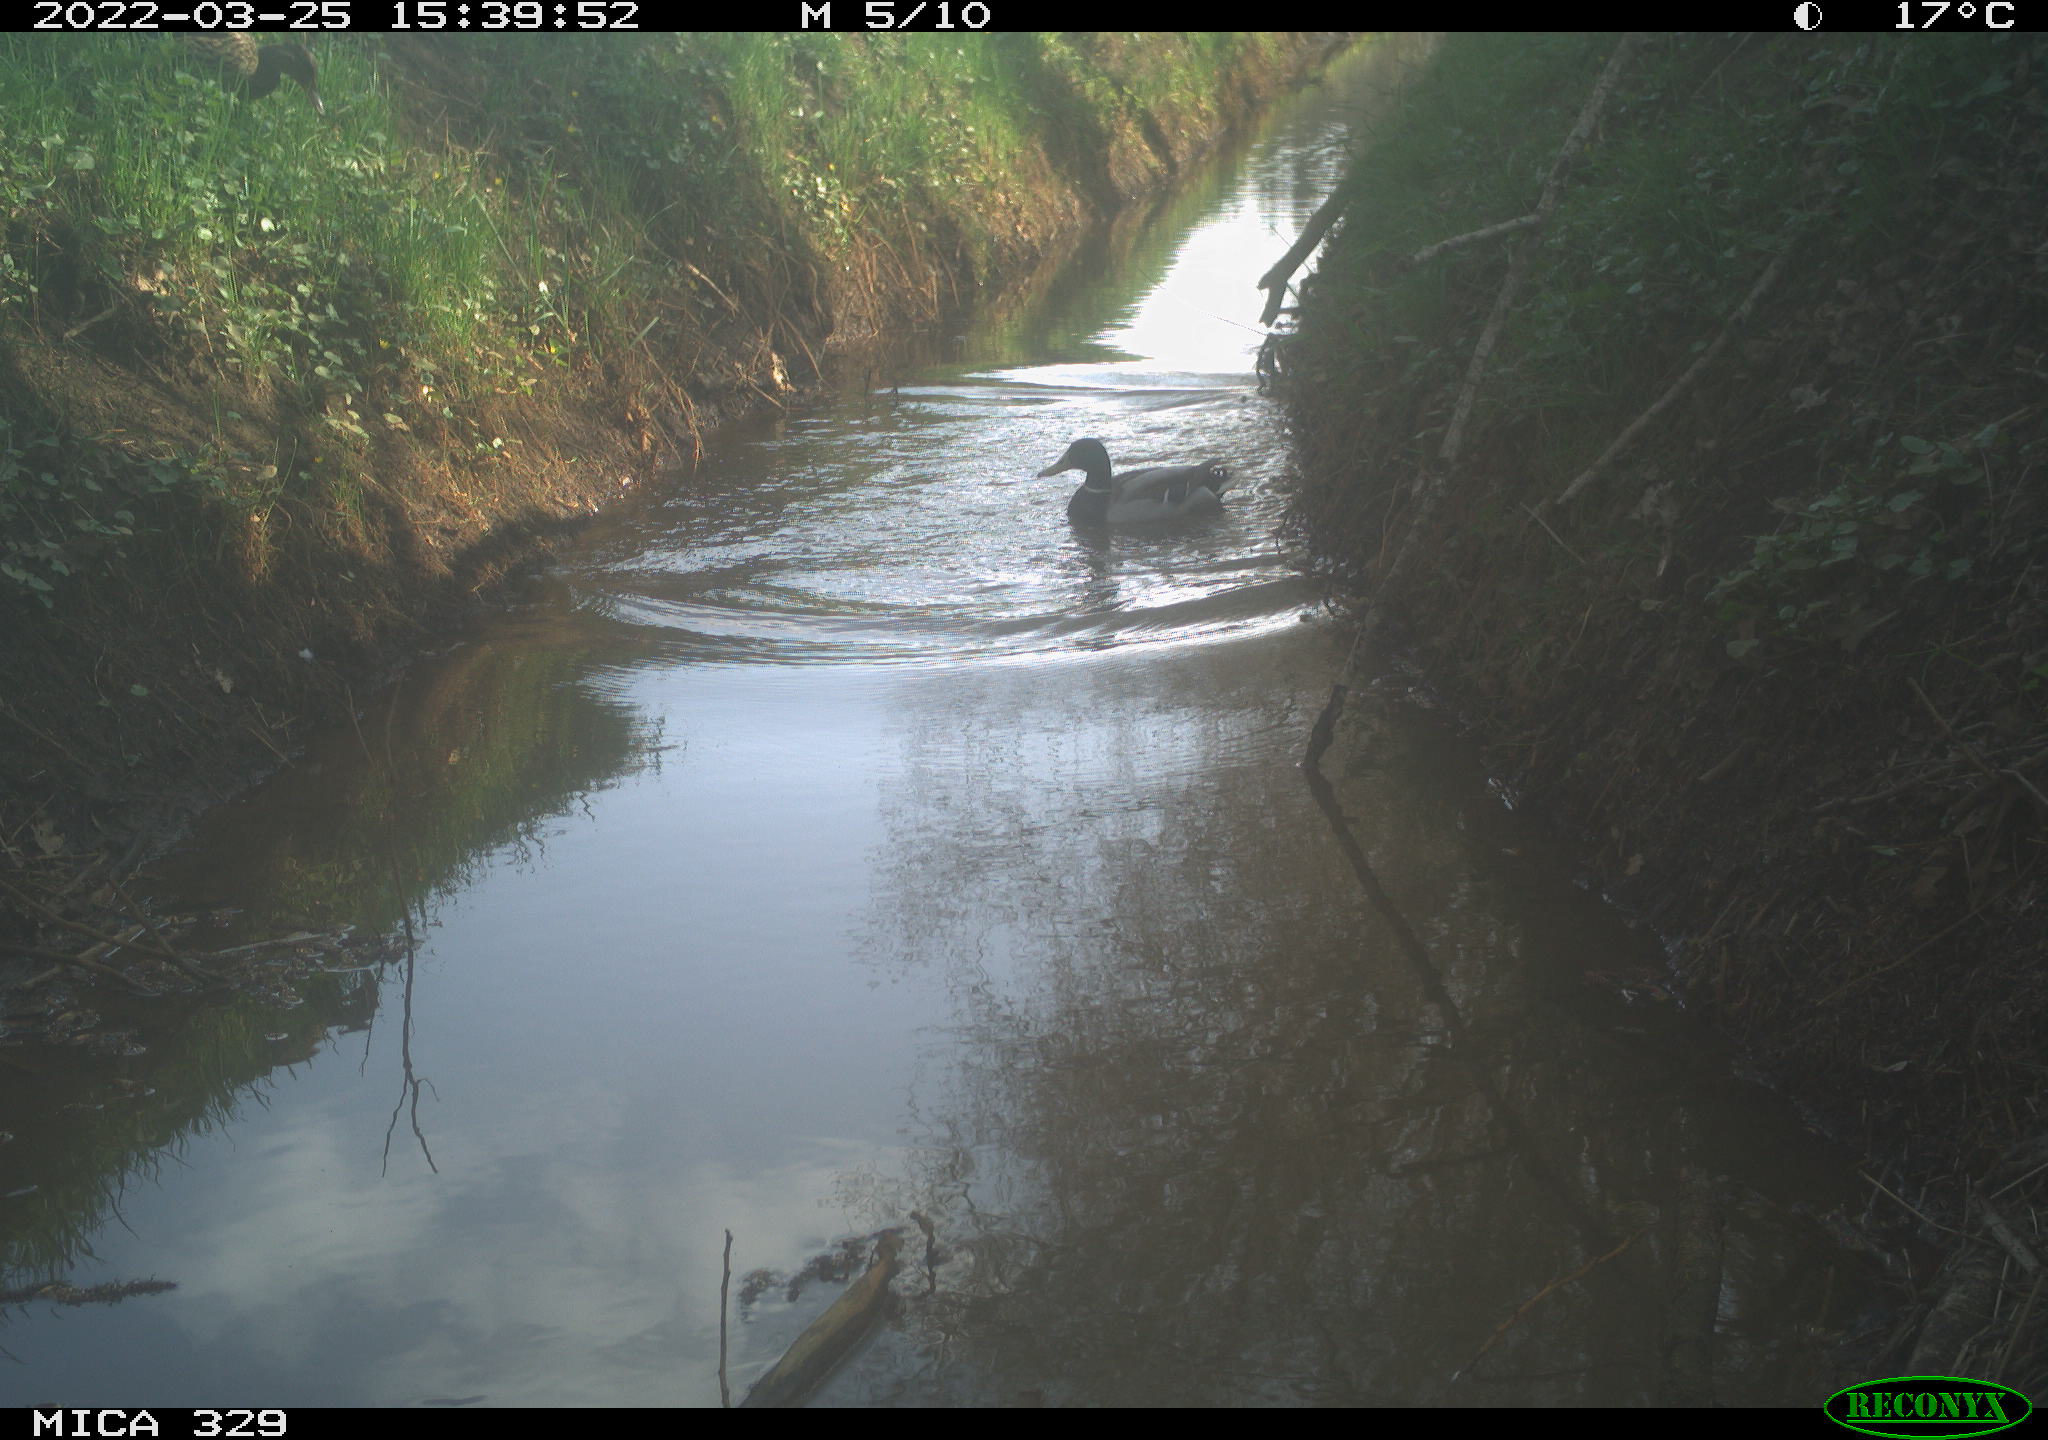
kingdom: Animalia
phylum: Chordata
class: Aves
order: Anseriformes
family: Anatidae
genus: Anas
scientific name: Anas platyrhynchos
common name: Mallard
